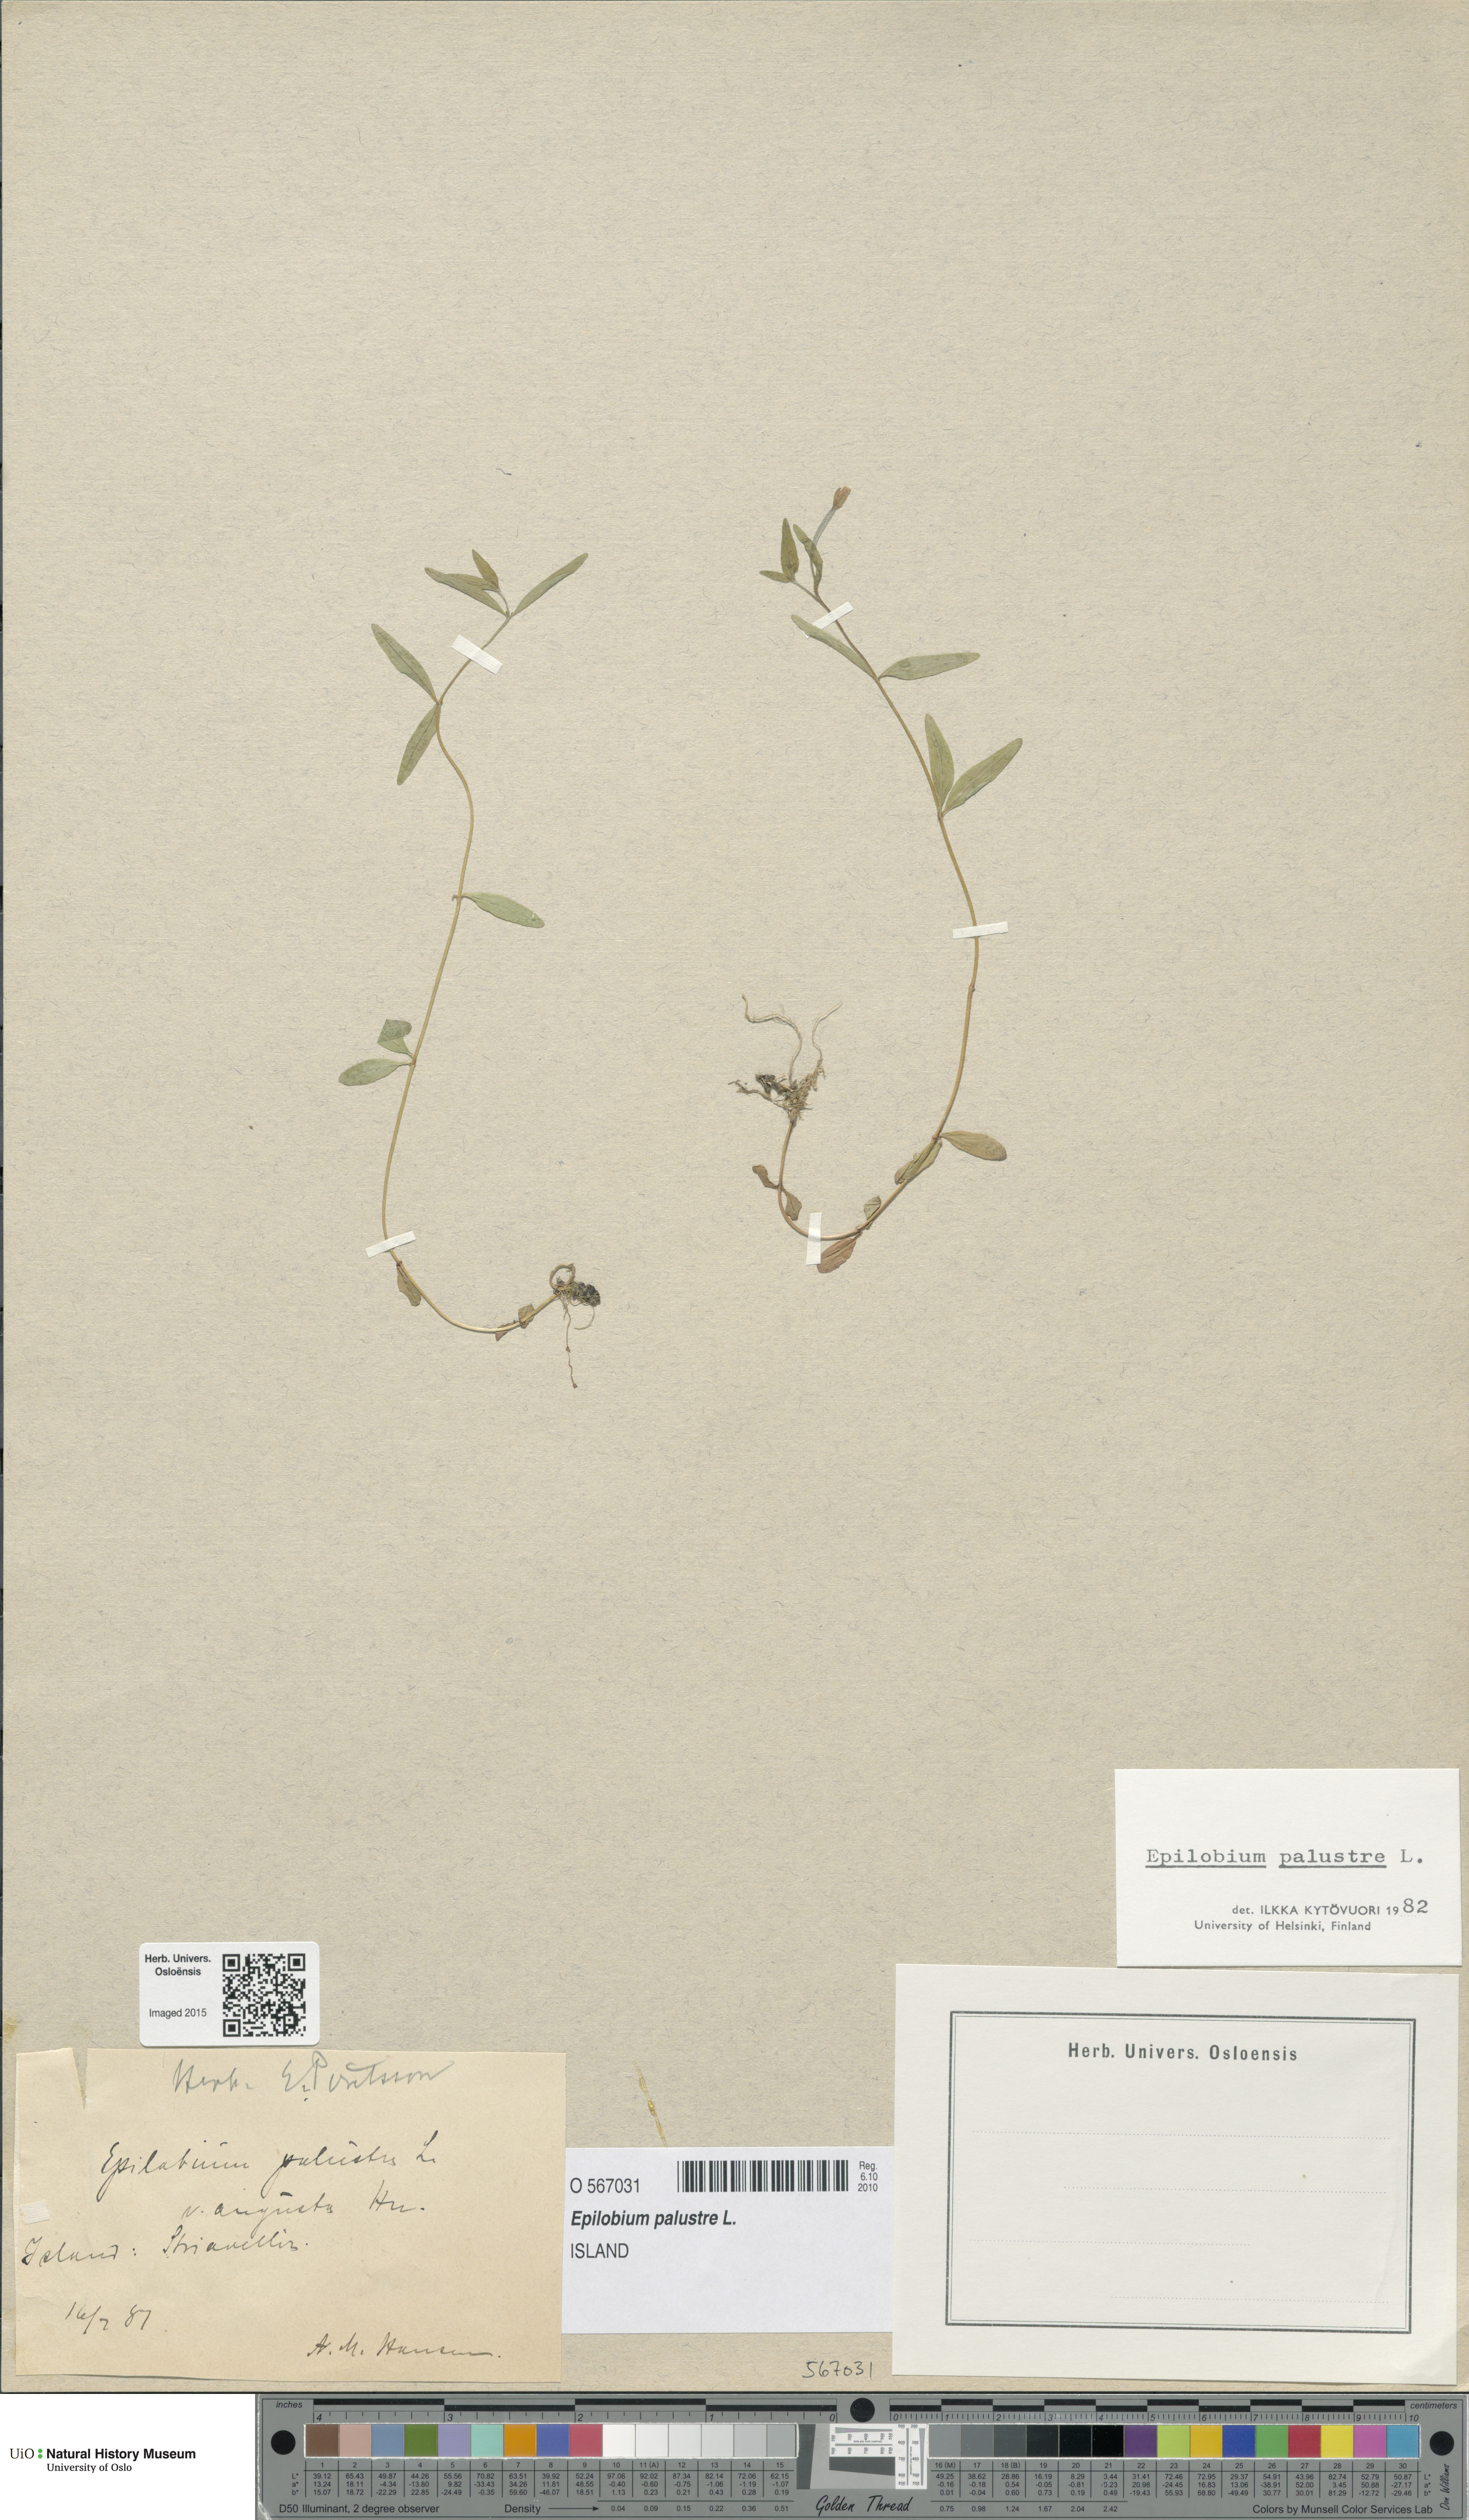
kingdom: Plantae
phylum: Tracheophyta
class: Magnoliopsida
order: Myrtales
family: Onagraceae
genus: Epilobium
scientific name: Epilobium palustre
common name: Marsh willowherb
